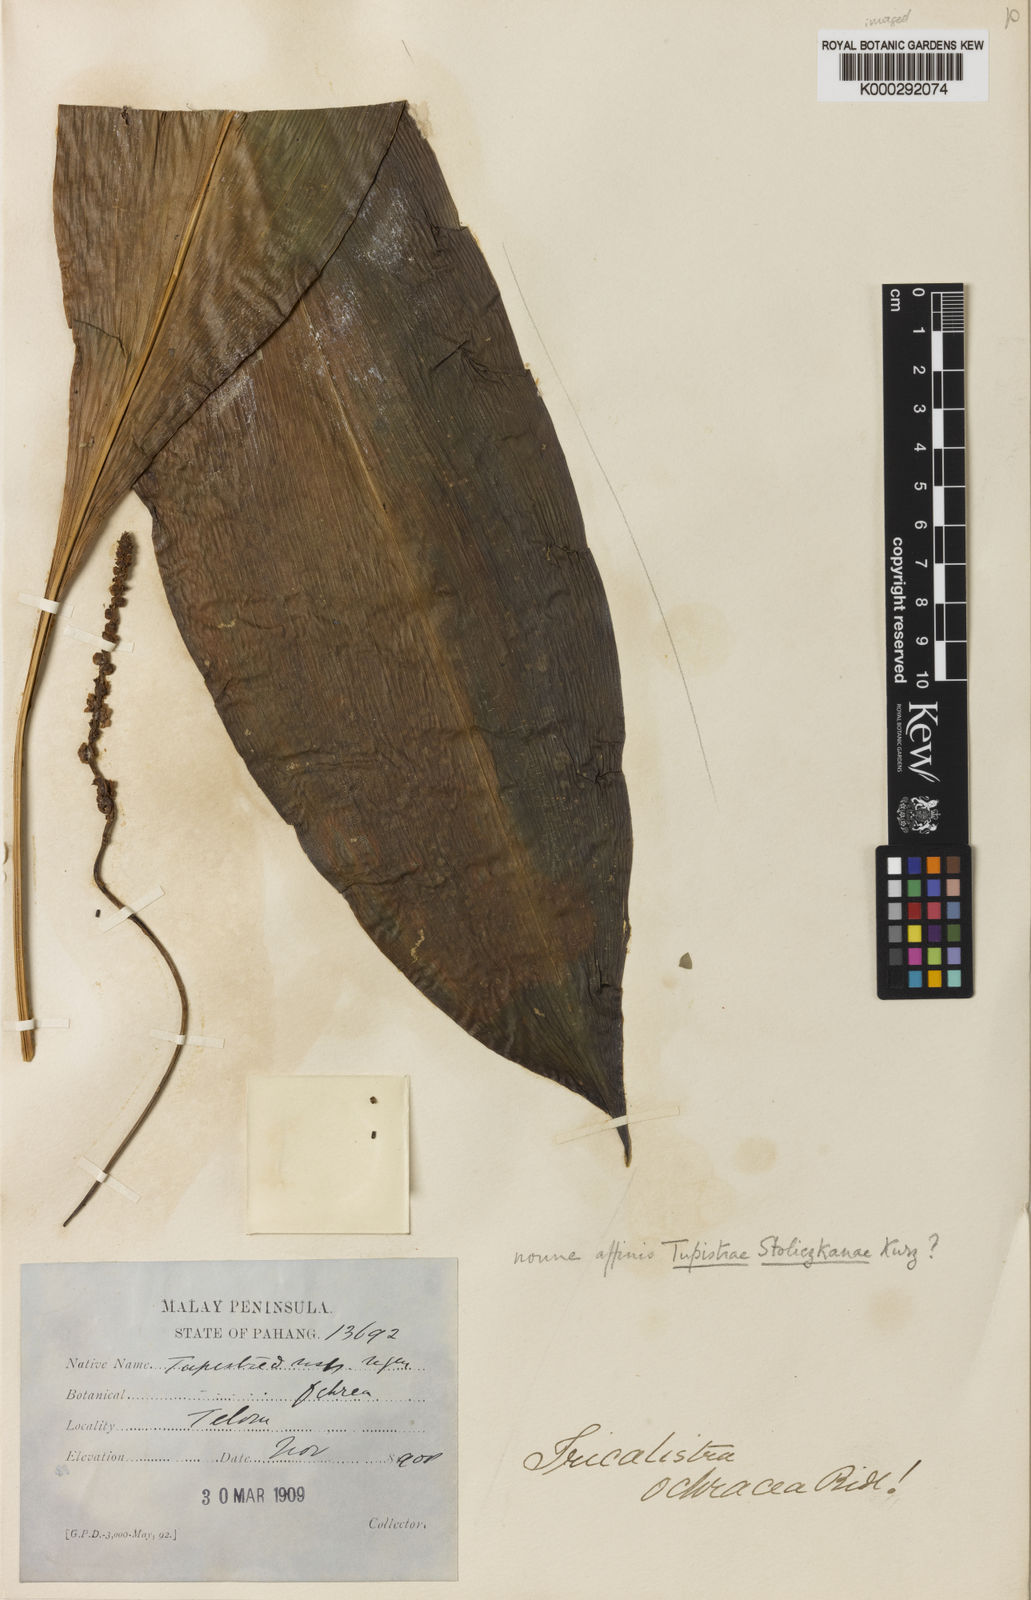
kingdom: Plantae
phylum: Tracheophyta
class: Liliopsida
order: Asparagales
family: Asparagaceae
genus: Tupistra
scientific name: Tupistra ochracea
